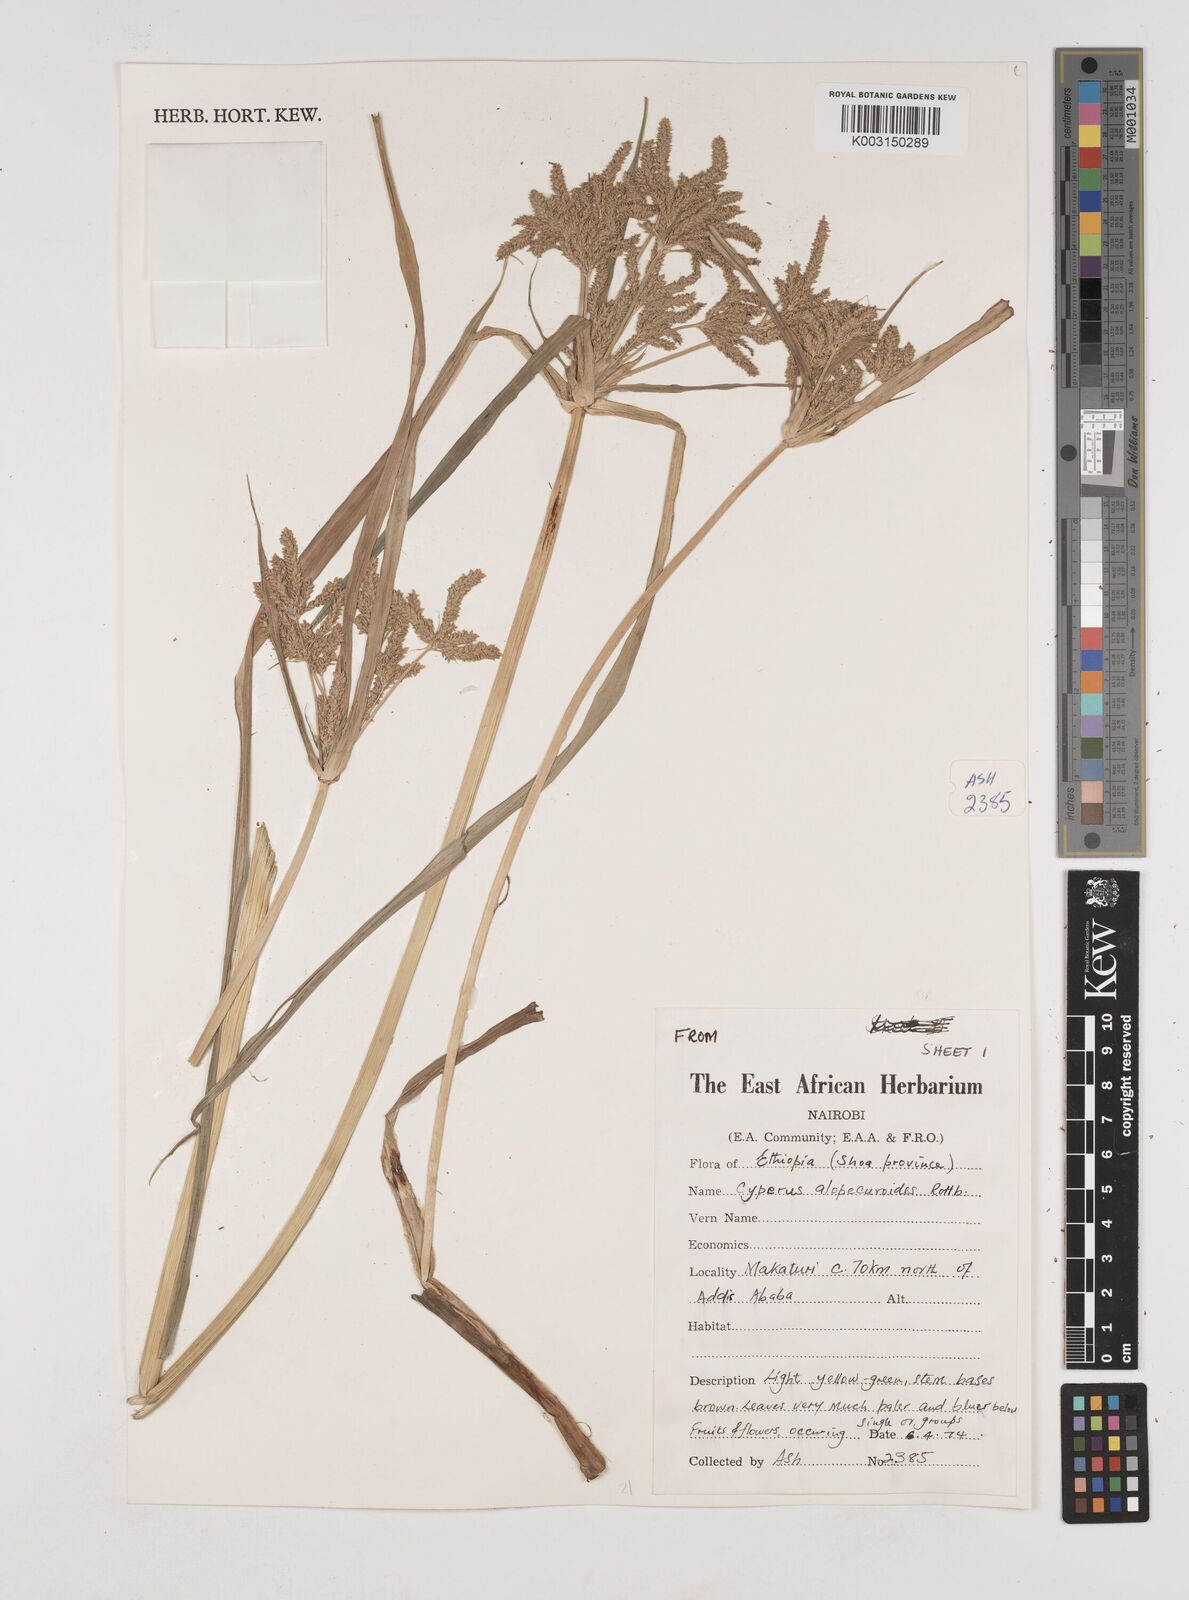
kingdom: Plantae
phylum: Tracheophyta
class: Liliopsida
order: Poales
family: Cyperaceae
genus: Cyperus
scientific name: Cyperus alopecuroides
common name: Foxtail flatsedge
